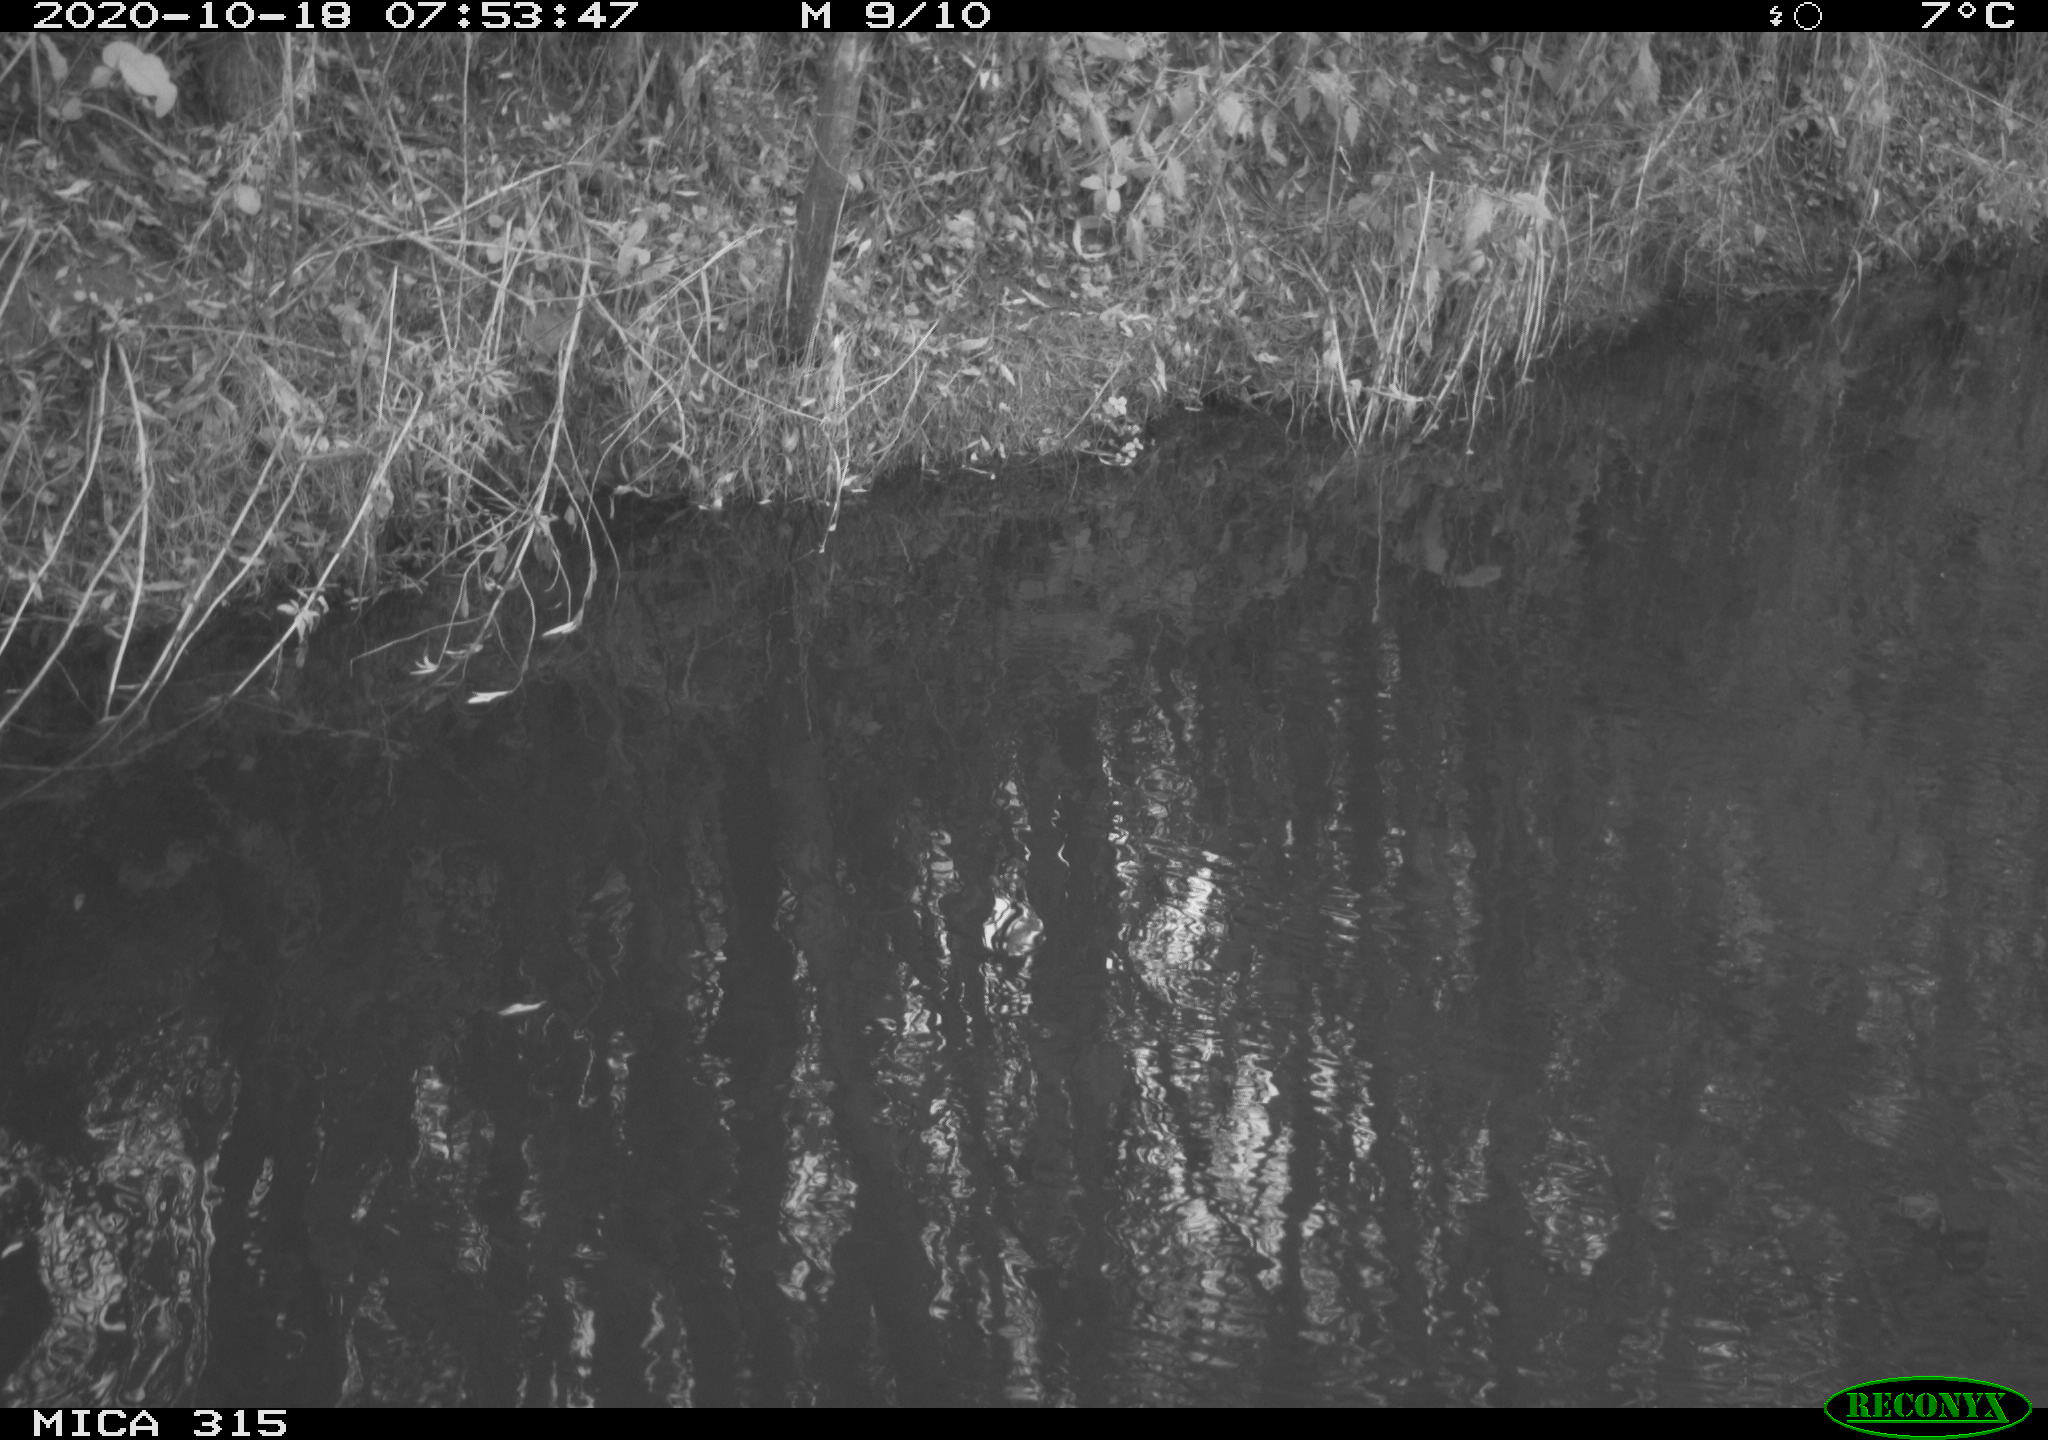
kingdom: Animalia
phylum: Chordata
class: Aves
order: Gruiformes
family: Rallidae
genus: Gallinula
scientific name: Gallinula chloropus
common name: Common moorhen
